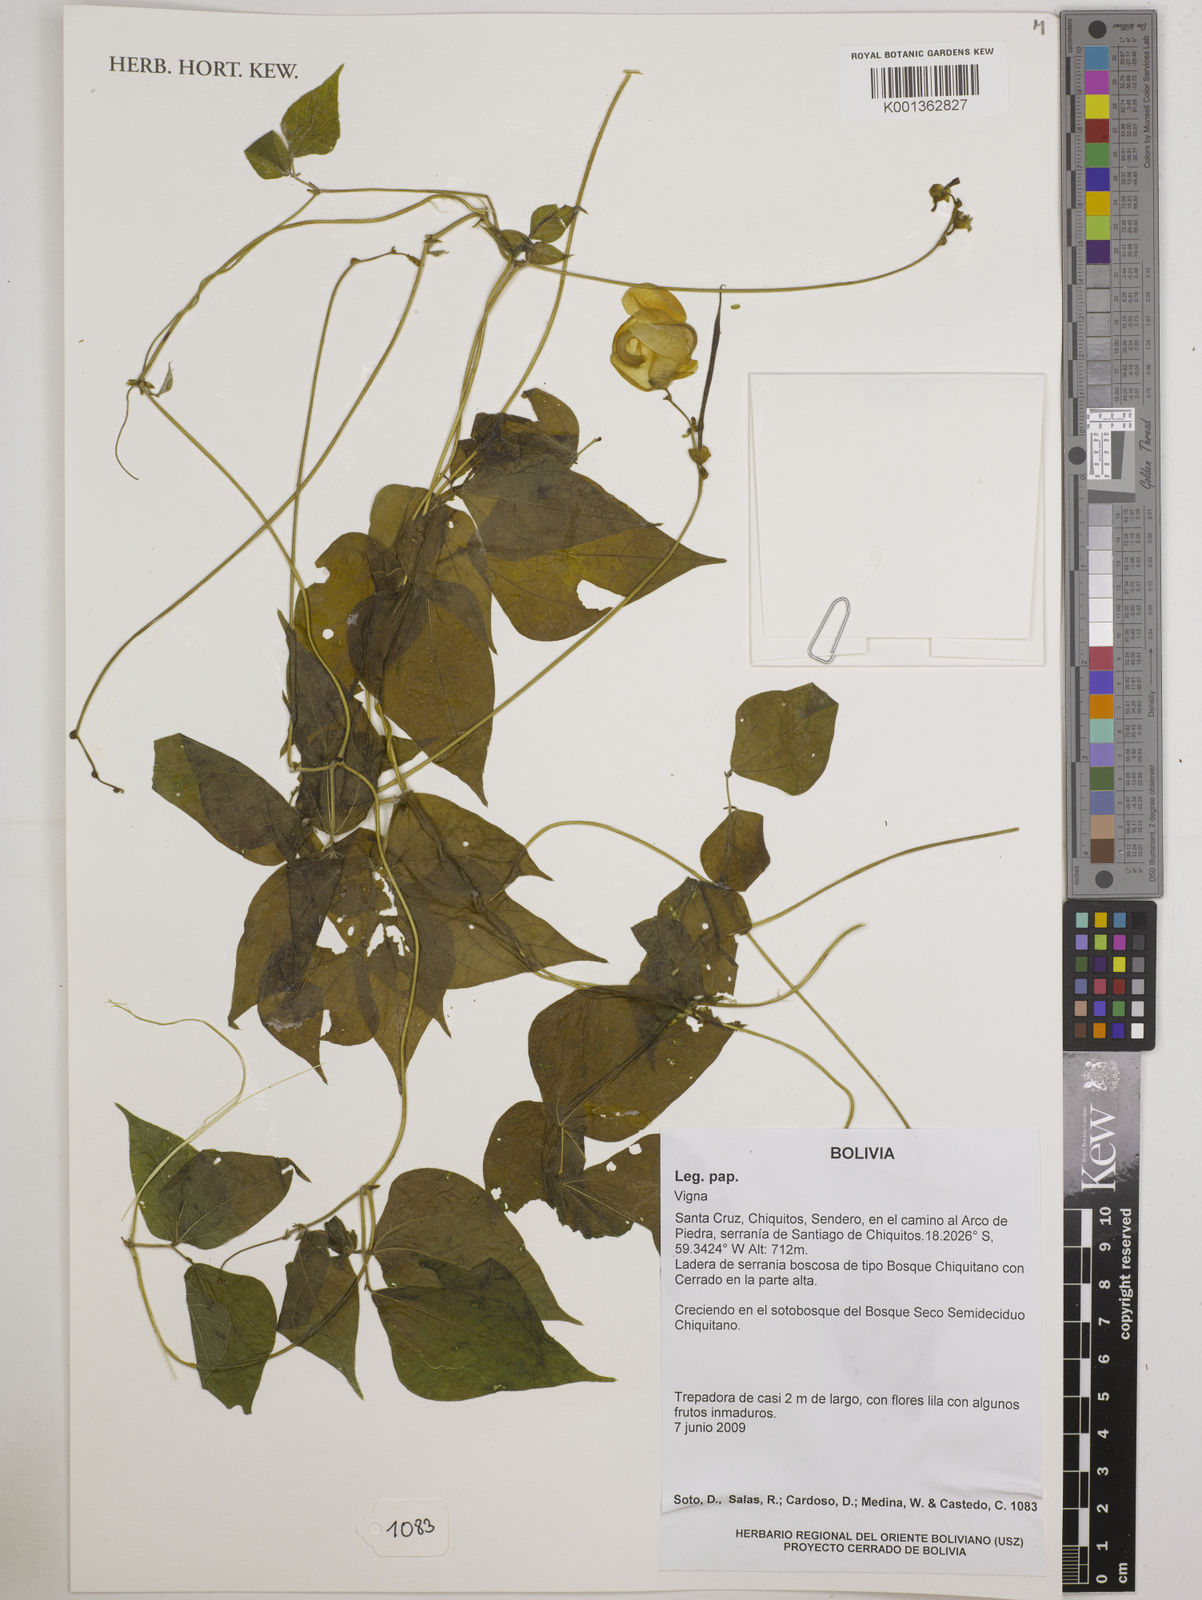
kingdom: Plantae
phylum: Tracheophyta
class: Magnoliopsida
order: Fabales
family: Fabaceae
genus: Vigna
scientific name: Vigna
